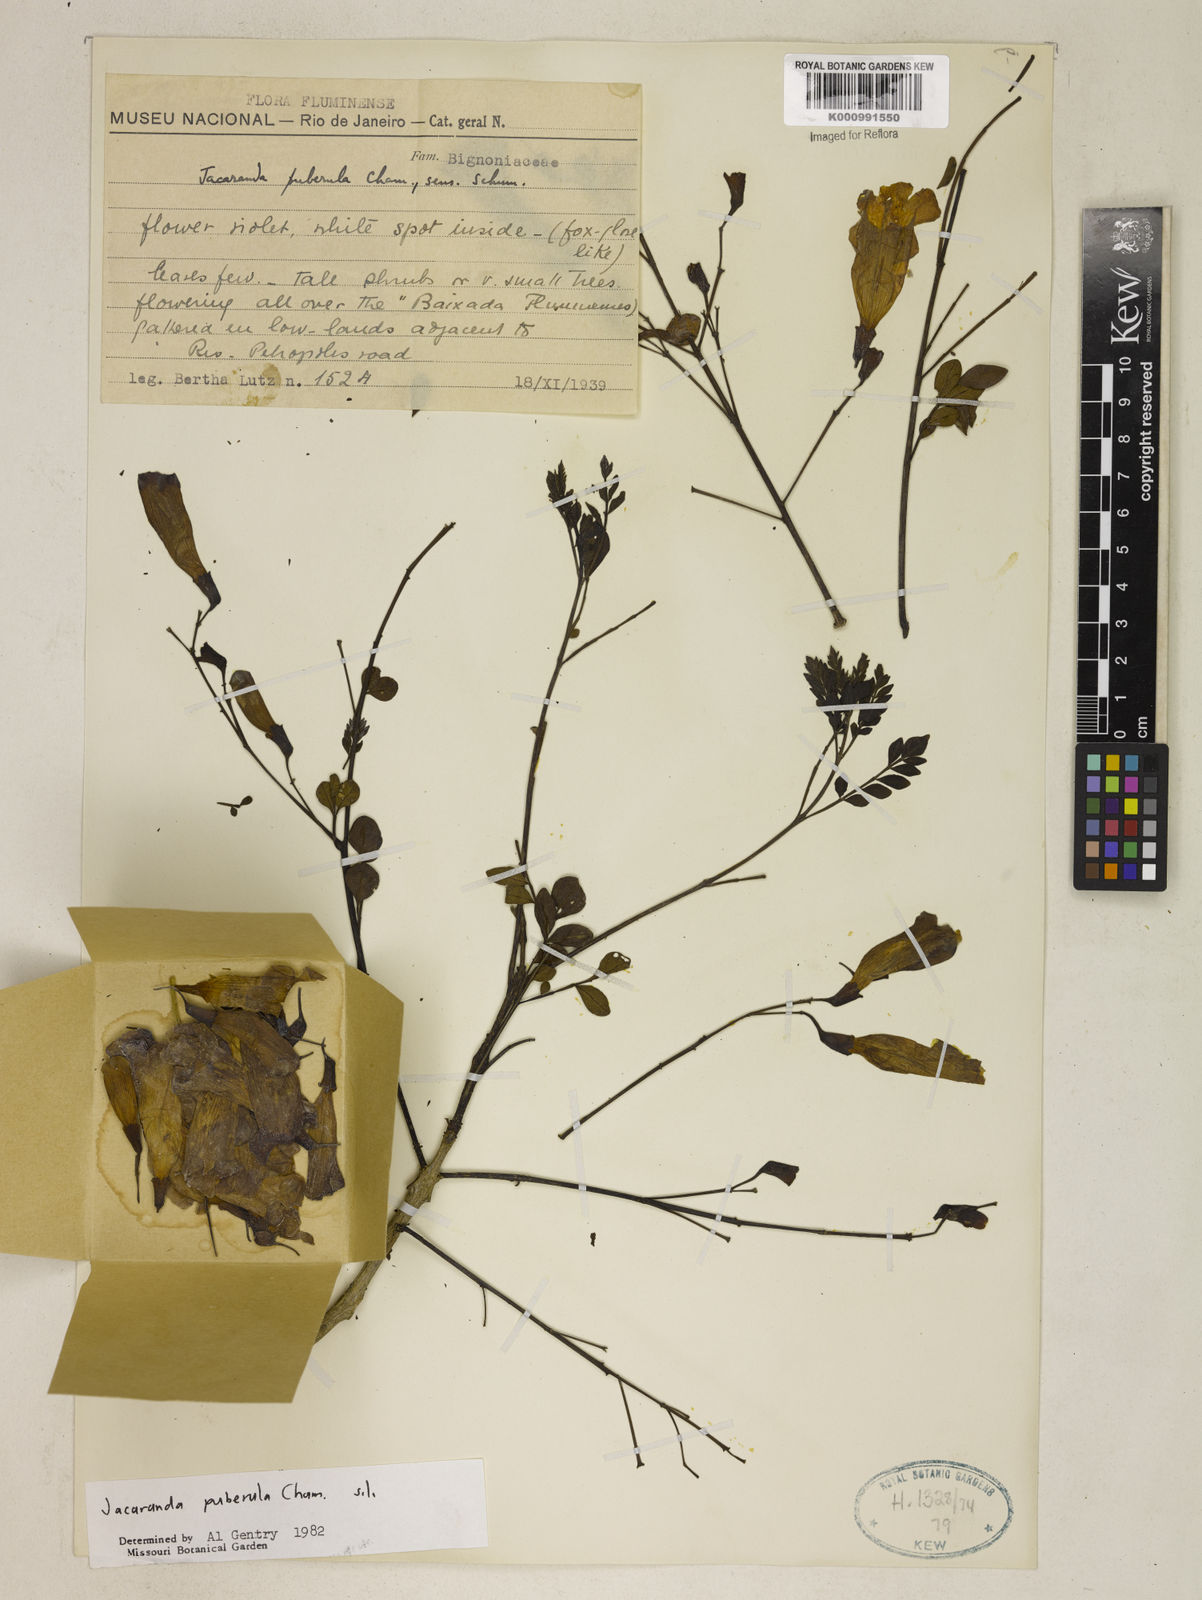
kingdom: Plantae
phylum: Tracheophyta
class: Magnoliopsida
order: Lamiales
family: Bignoniaceae
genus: Jacaranda
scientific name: Jacaranda puberula
